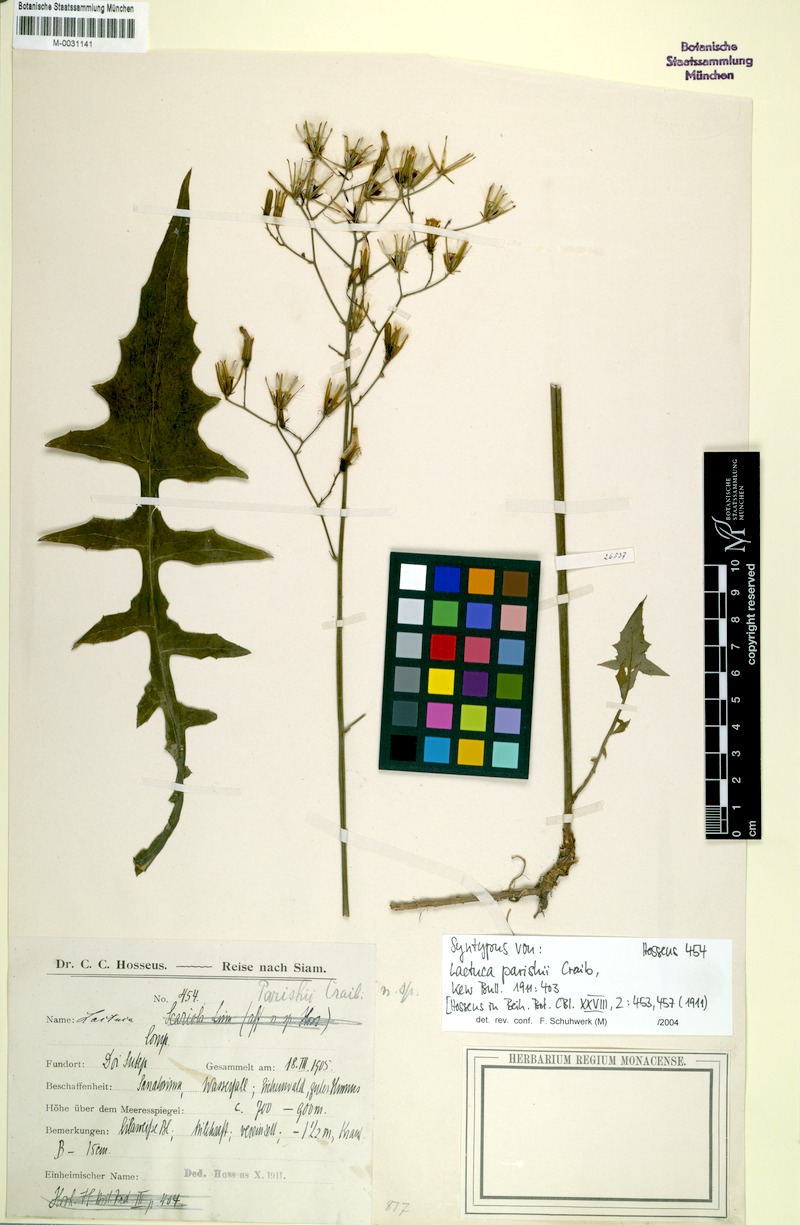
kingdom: Plantae
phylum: Tracheophyta
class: Magnoliopsida
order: Asterales
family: Asteraceae
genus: Lactuca
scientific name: Lactuca parishii
